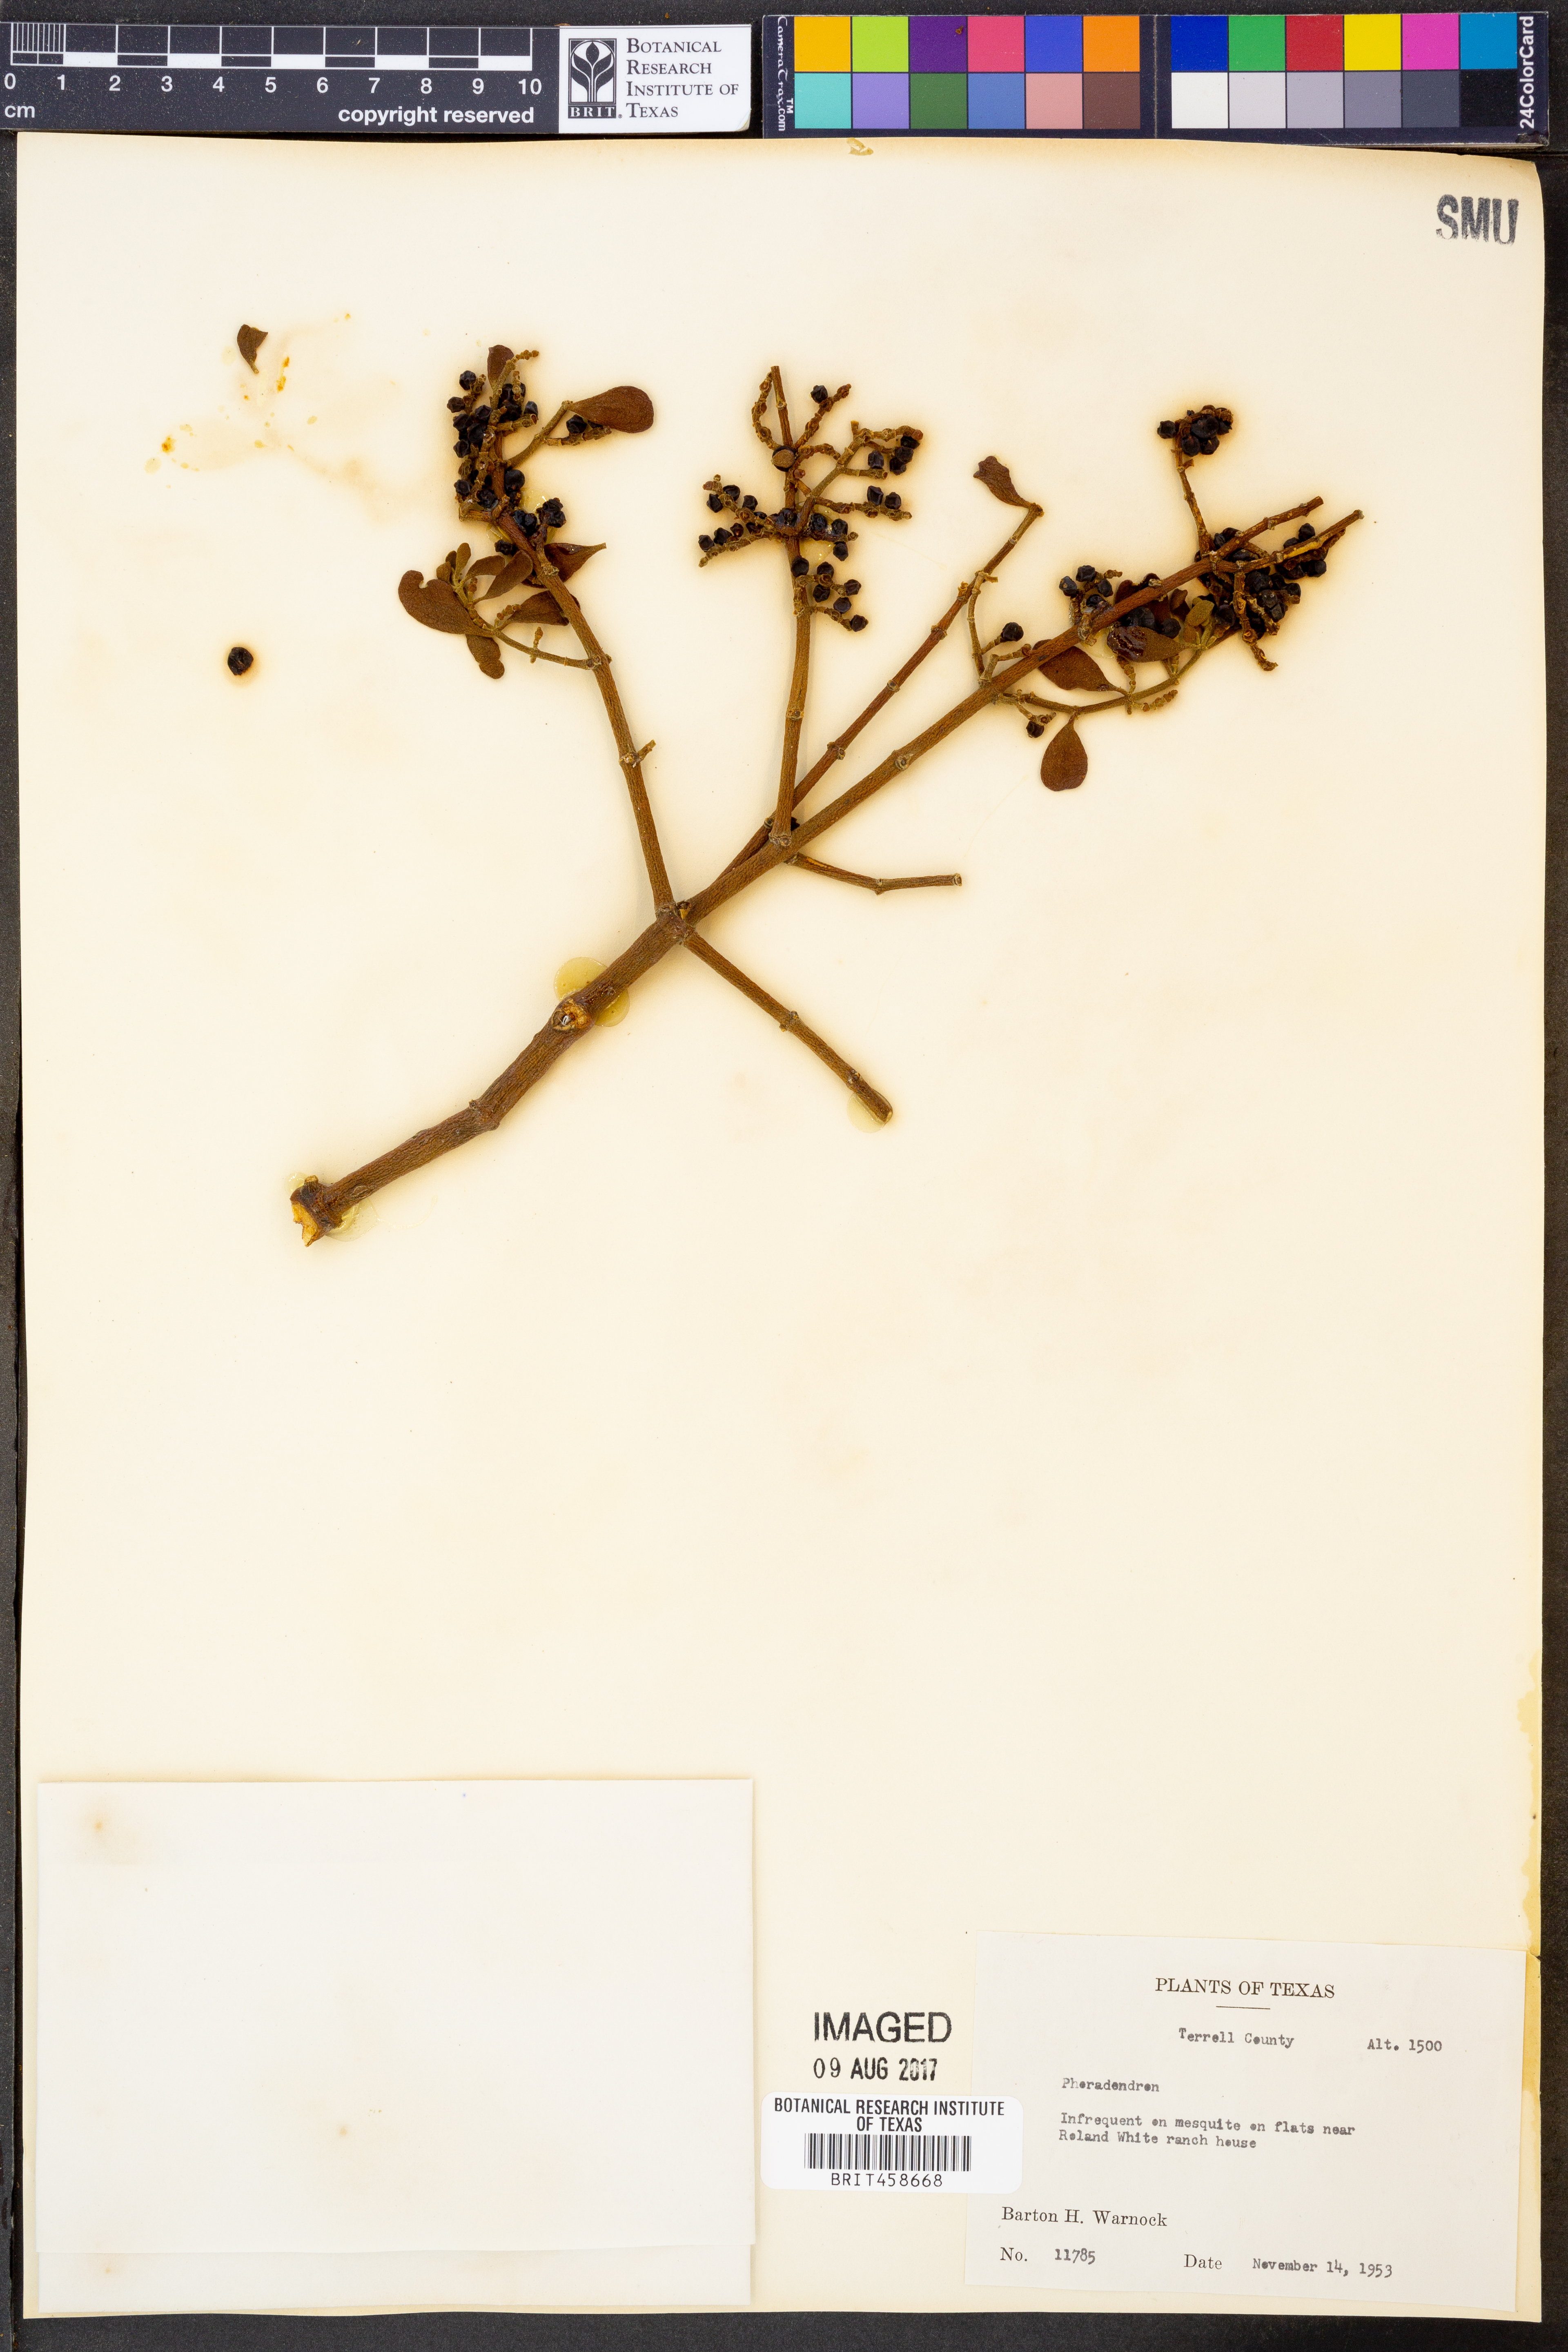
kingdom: Plantae
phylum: Tracheophyta
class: Magnoliopsida
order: Santalales
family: Viscaceae
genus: Phoradendron
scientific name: Phoradendron
